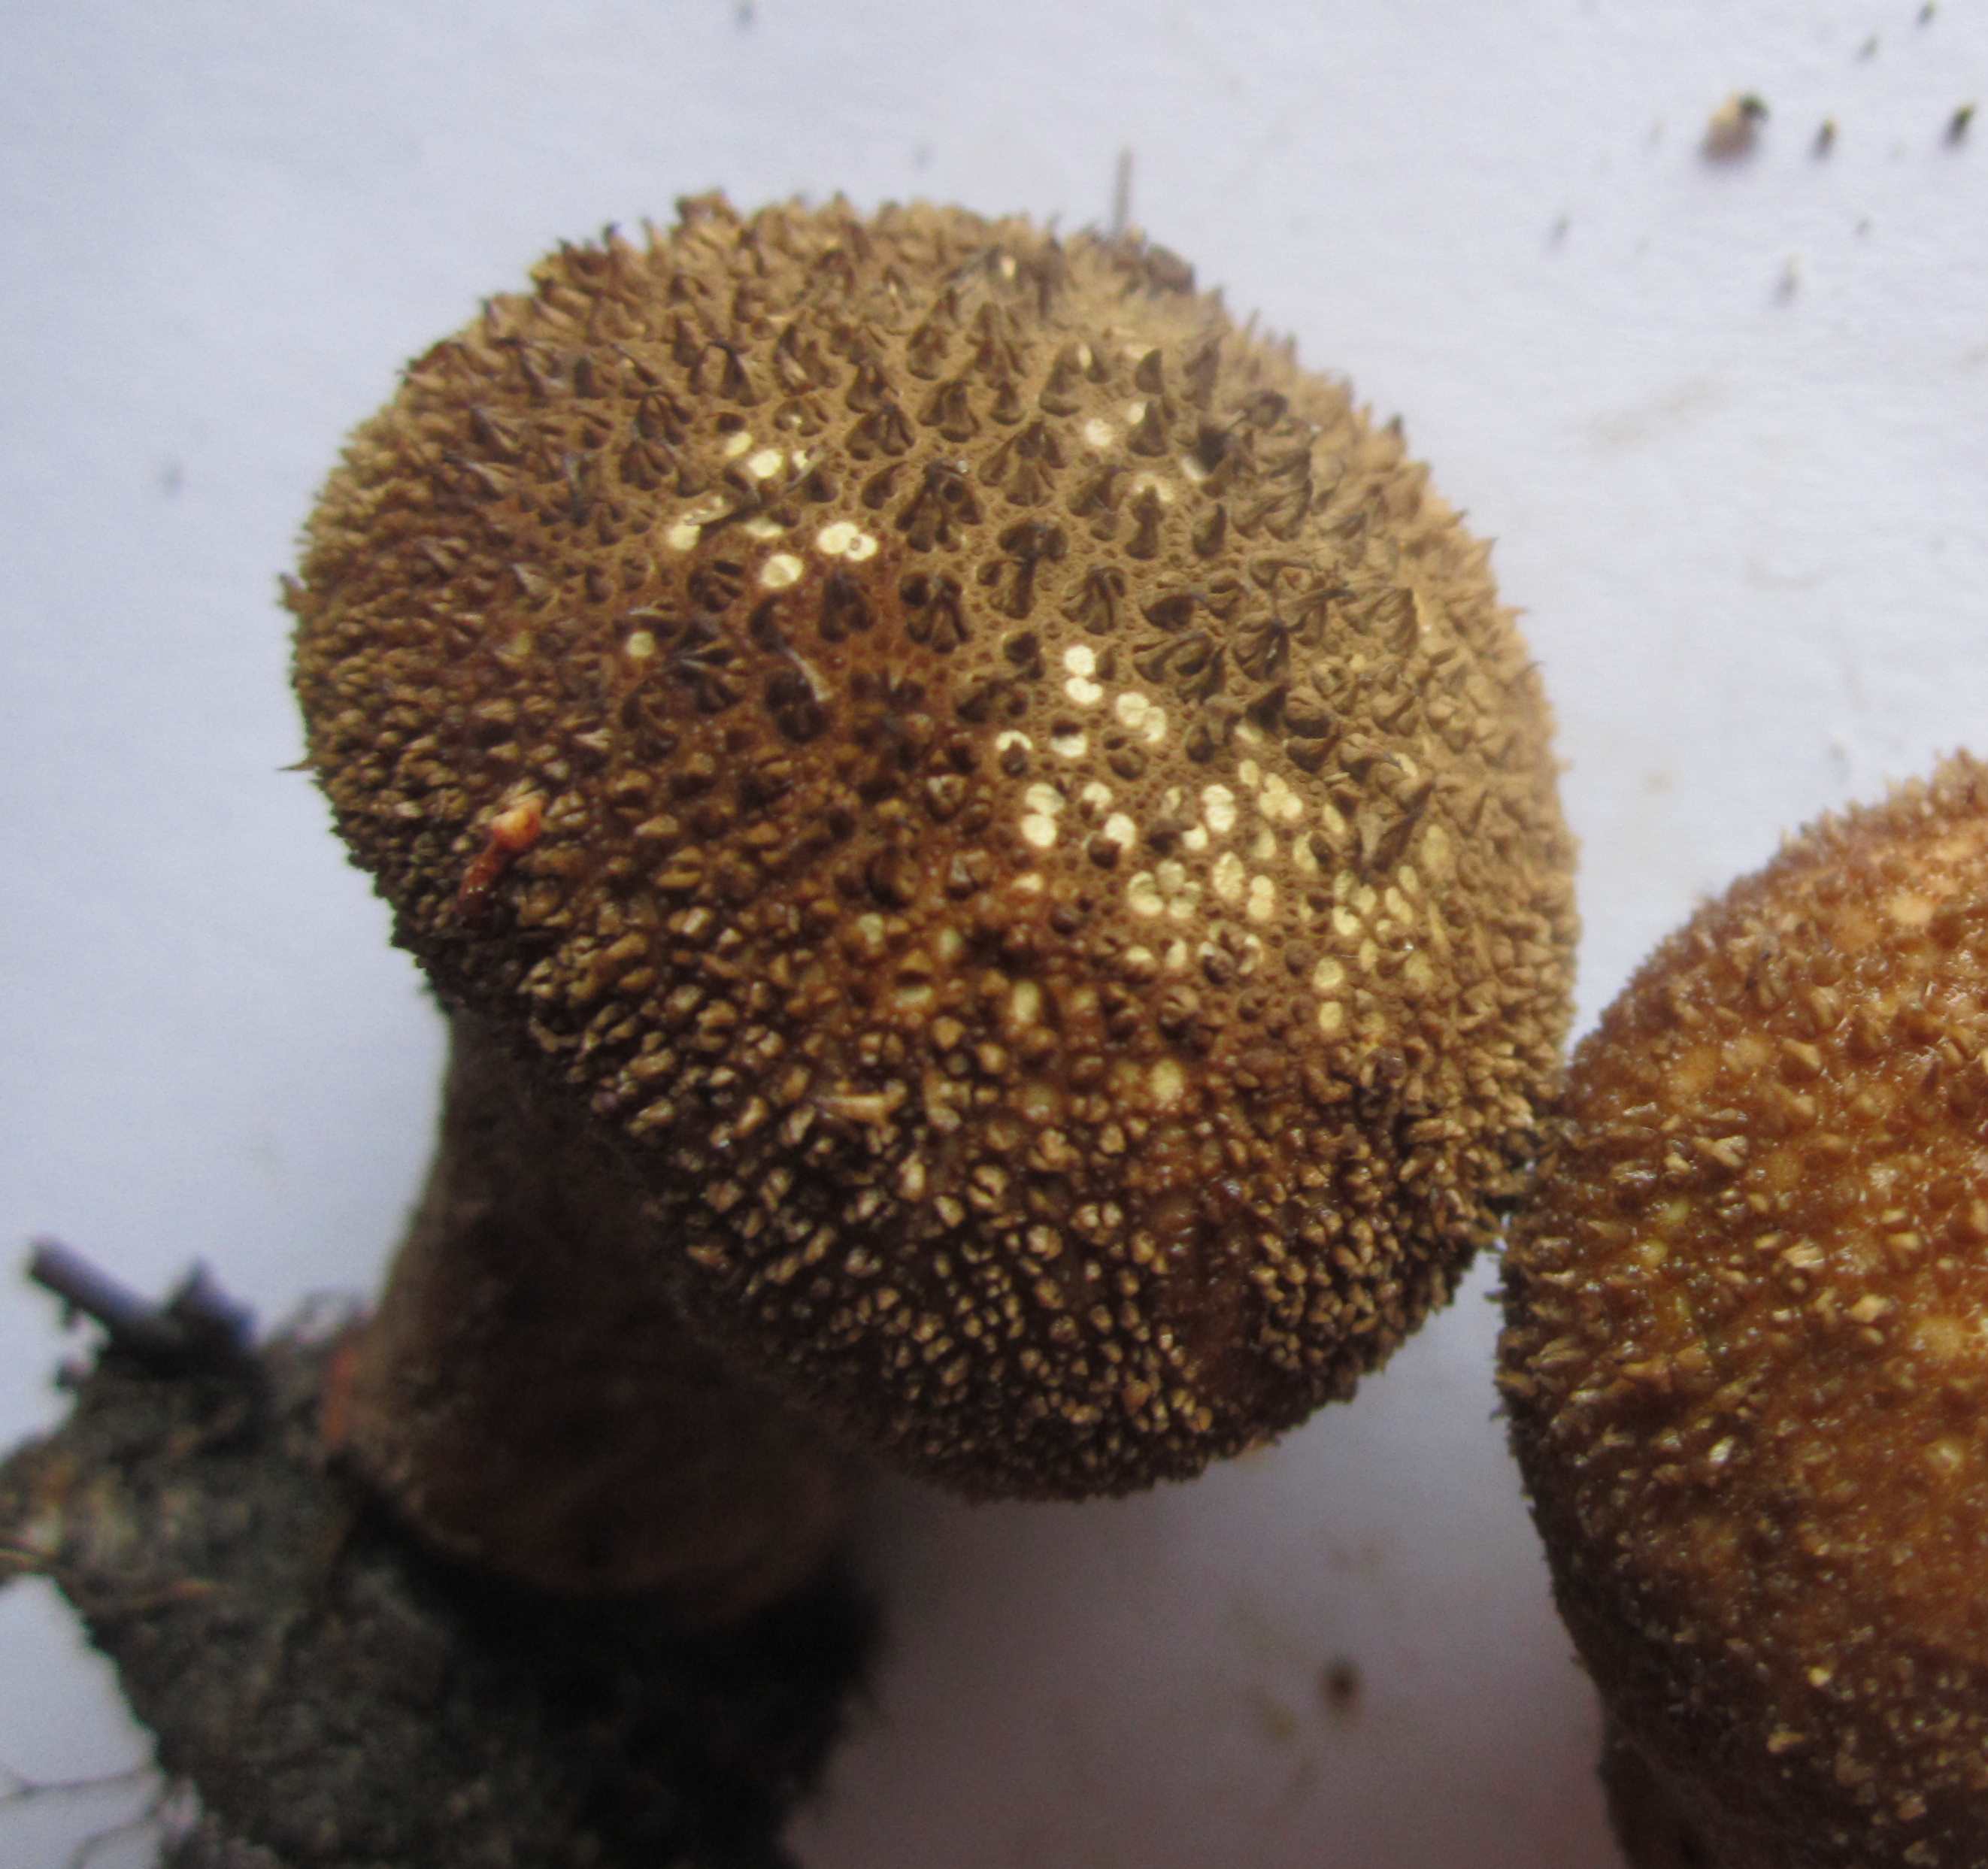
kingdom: Fungi
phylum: Basidiomycota
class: Agaricomycetes
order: Agaricales
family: Lycoperdaceae
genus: Lycoperdon
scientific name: Lycoperdon nigrescens
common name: sortagtig støvbold
